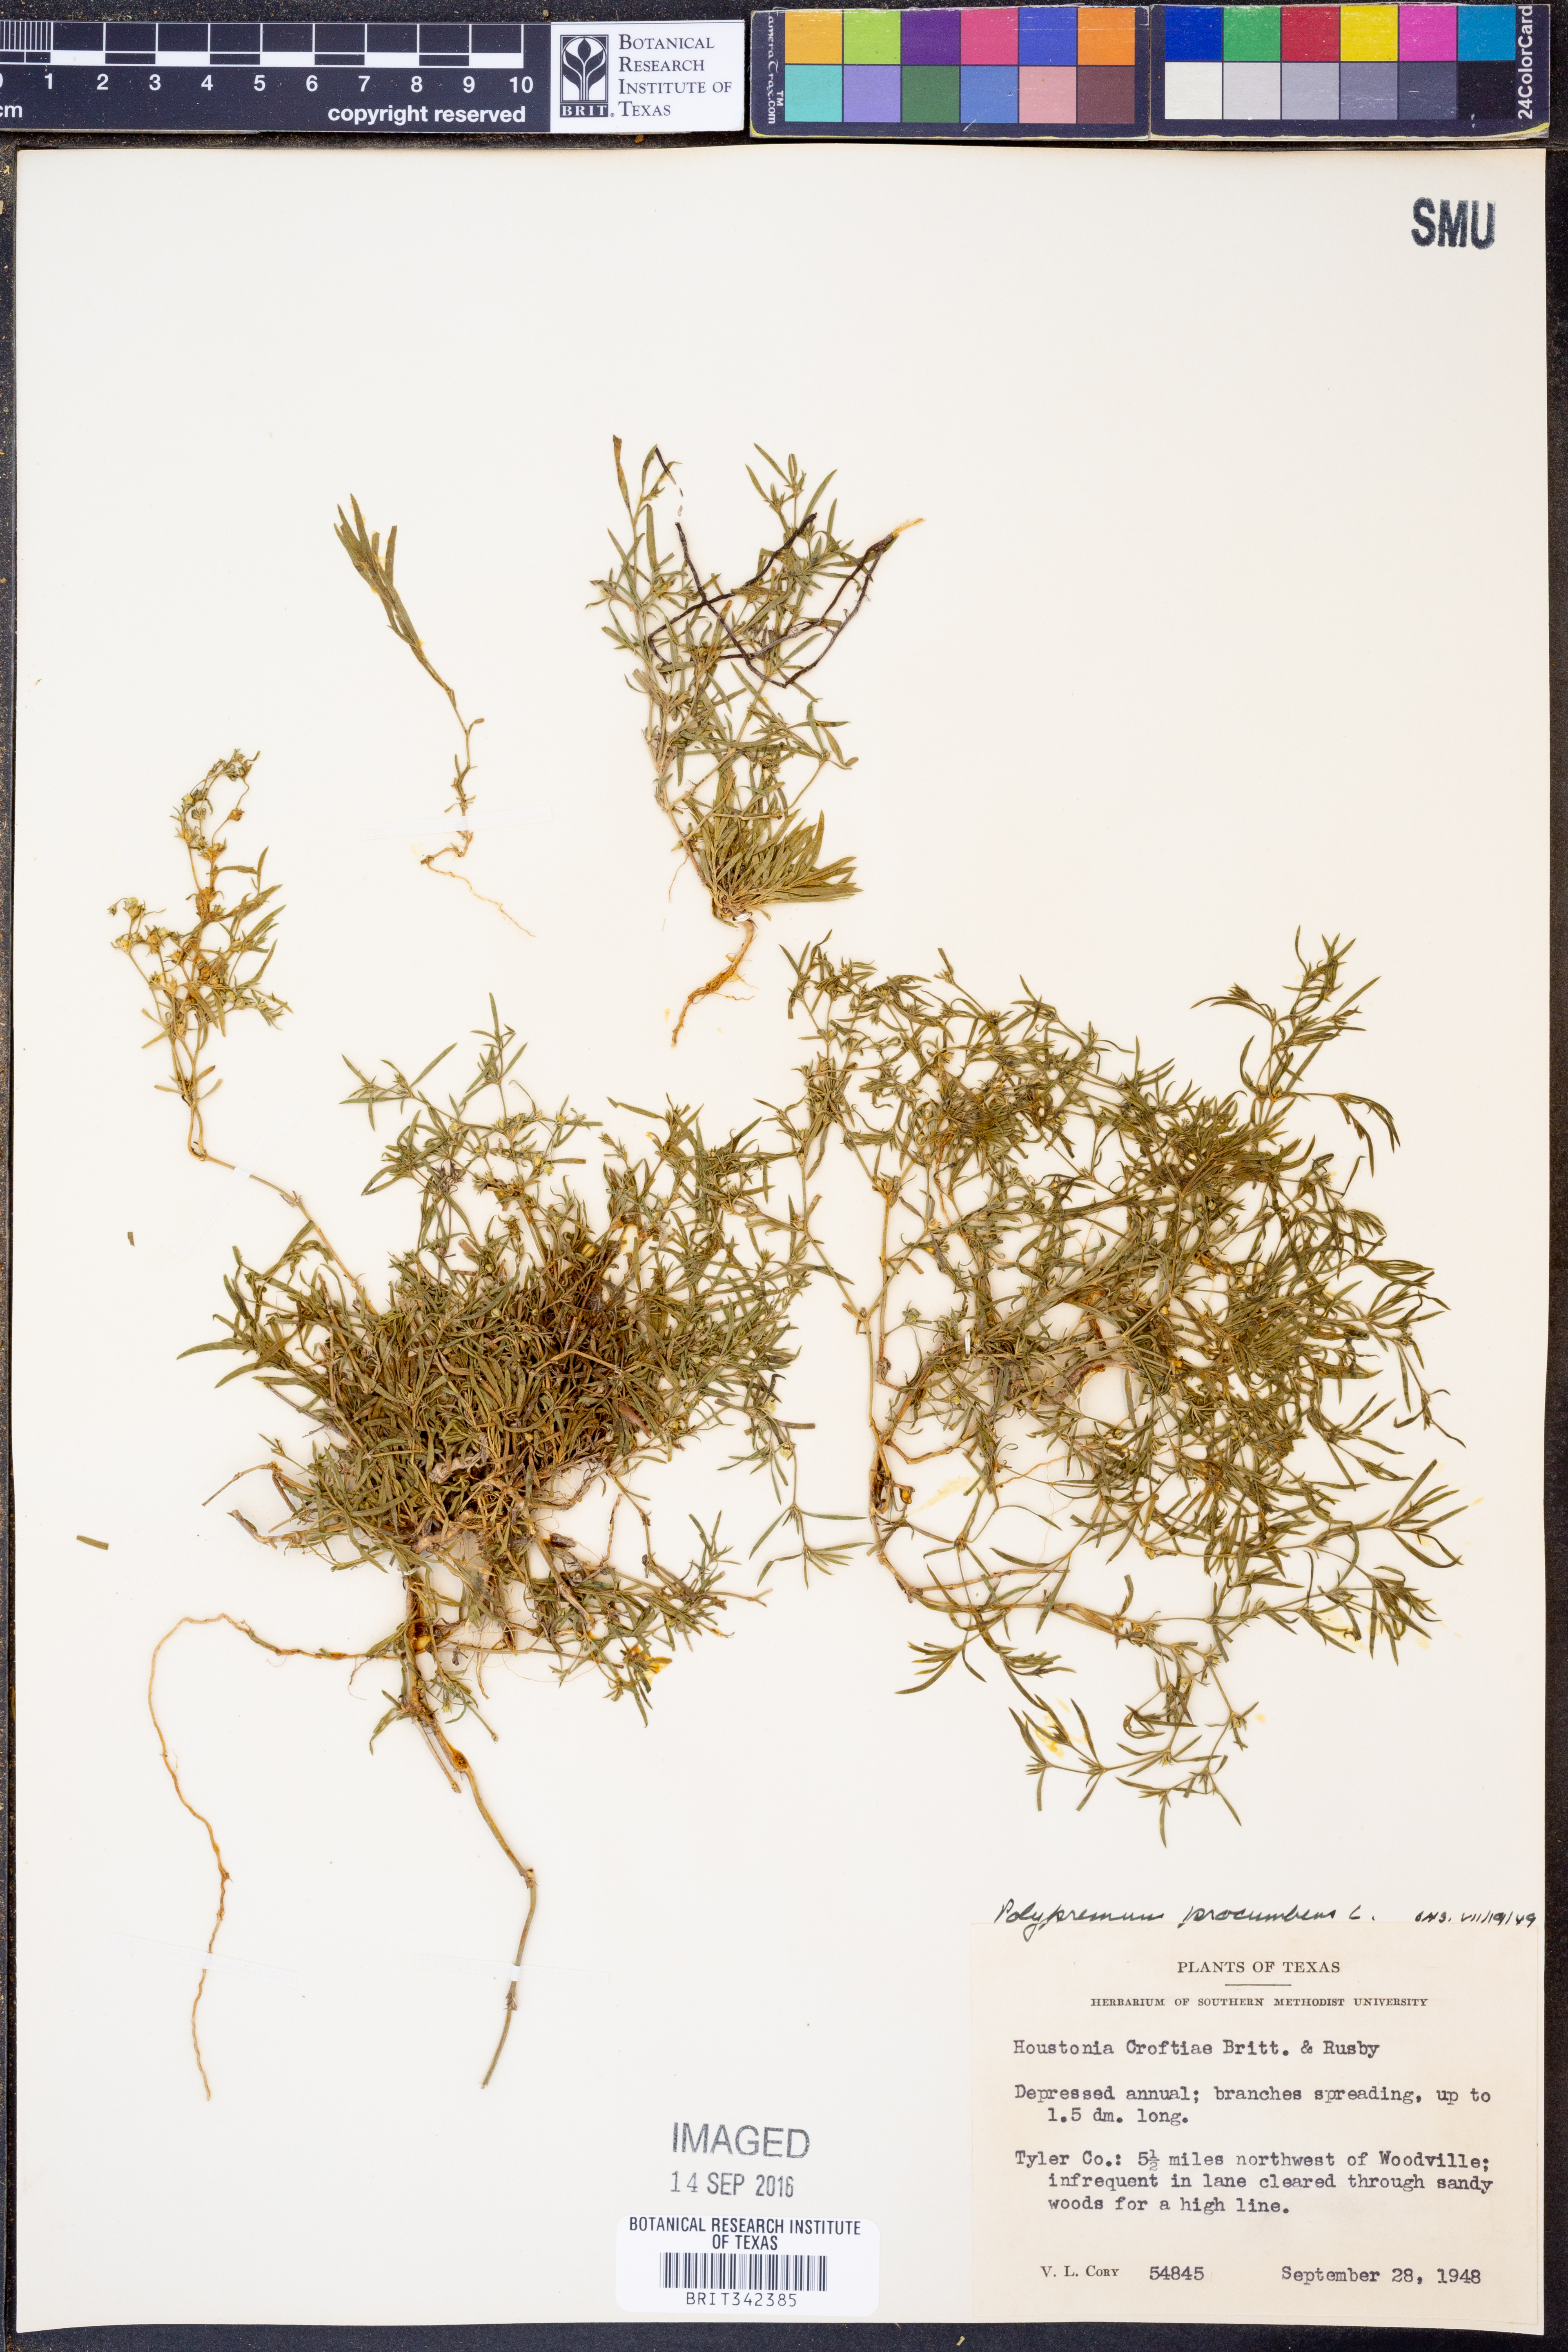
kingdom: Plantae
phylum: Tracheophyta
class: Magnoliopsida
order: Lamiales
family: Tetrachondraceae
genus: Polypremum
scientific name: Polypremum procumbens
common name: Juniper-leaf
